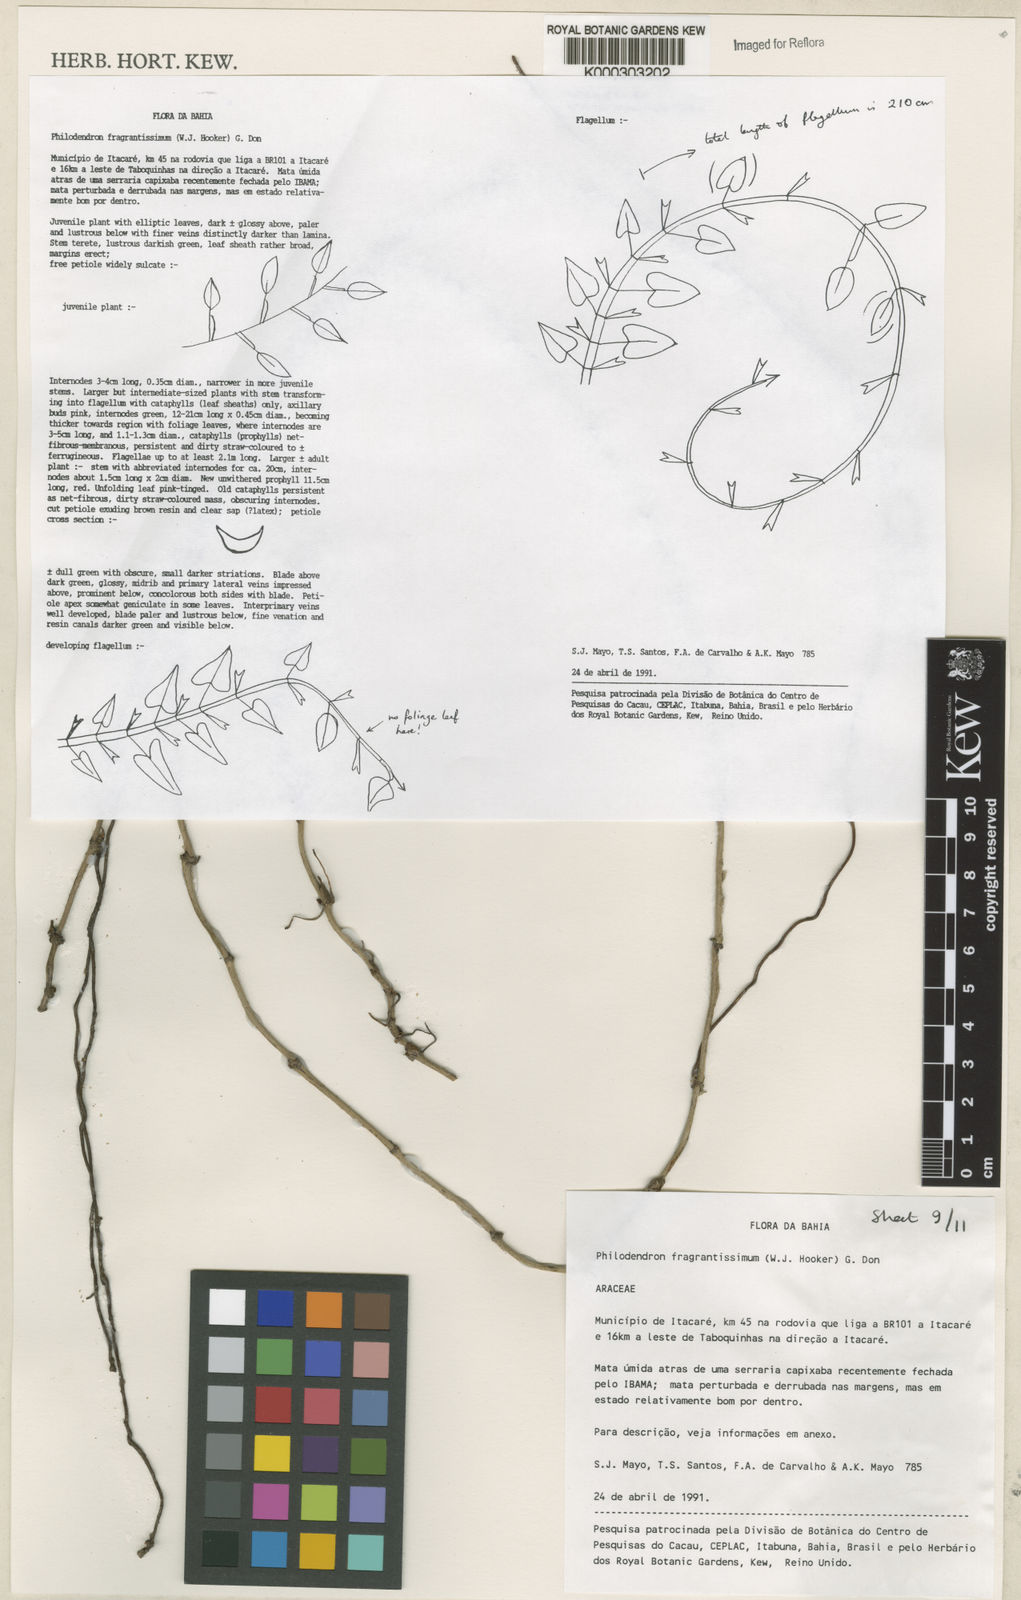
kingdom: Plantae
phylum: Tracheophyta
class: Liliopsida
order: Alismatales
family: Araceae
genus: Philodendron
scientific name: Philodendron fragrantissimum
